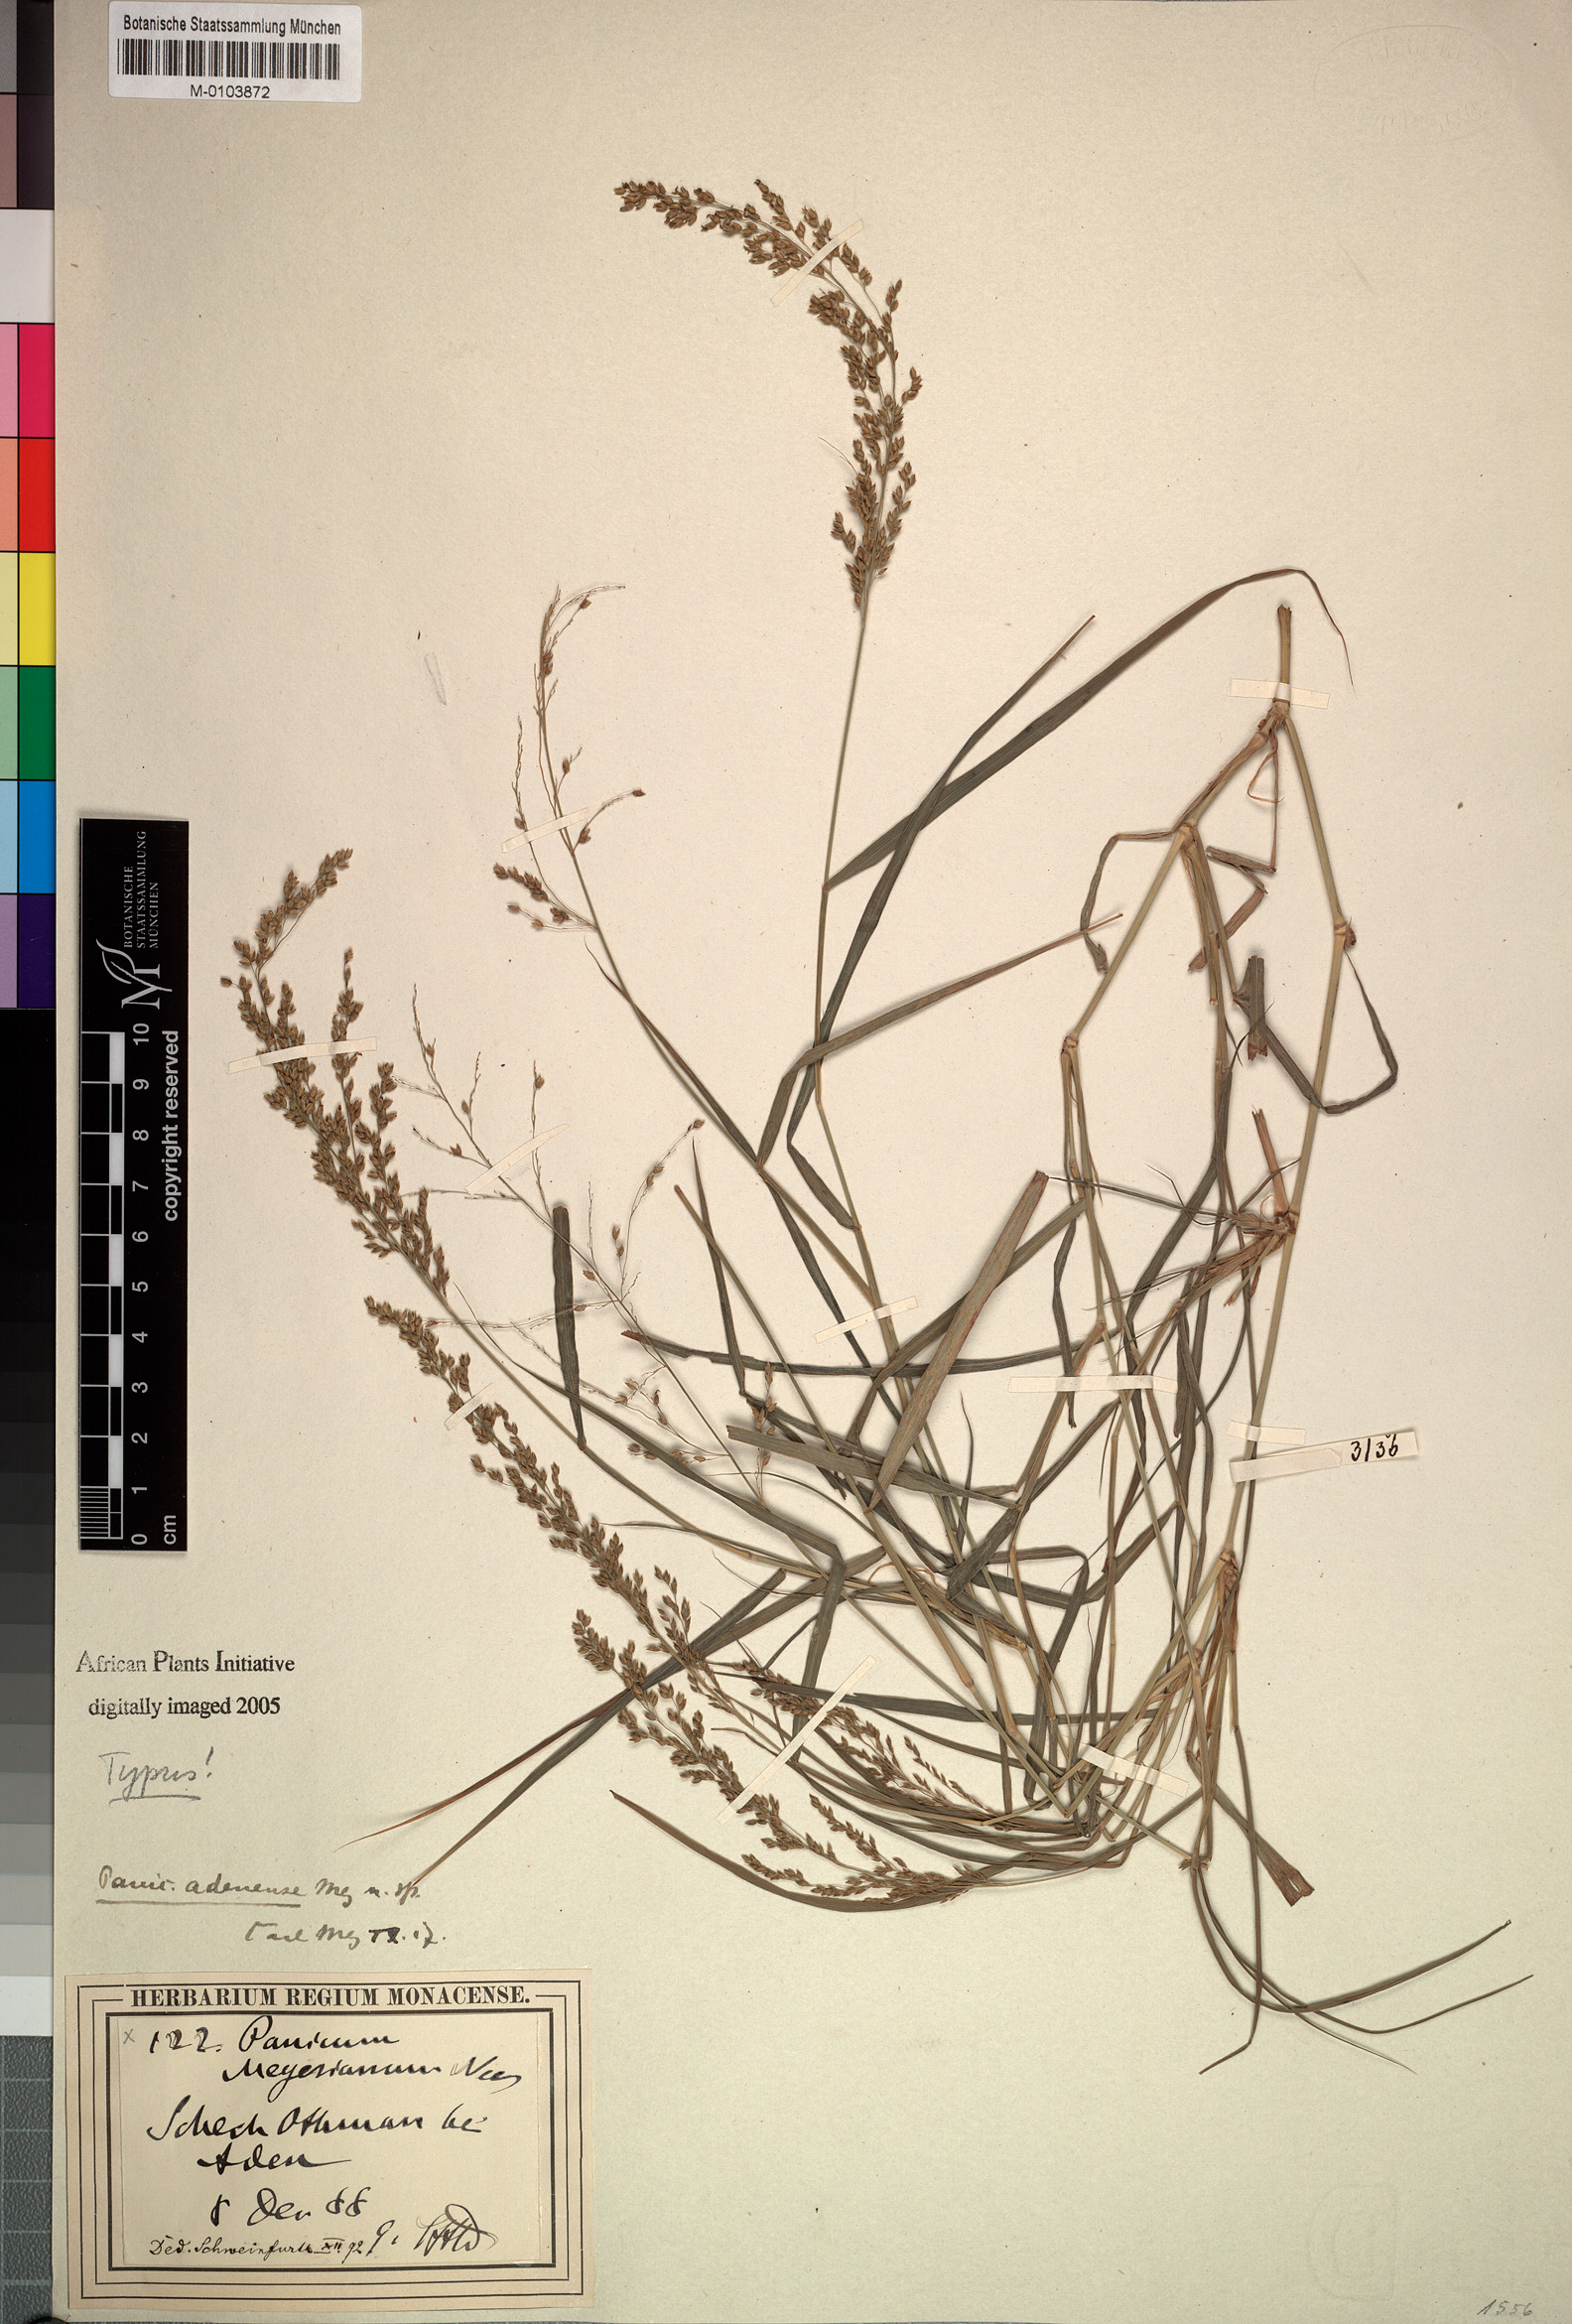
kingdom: Plantae
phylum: Tracheophyta
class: Liliopsida
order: Poales
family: Poaceae
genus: Eriochloa
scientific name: Eriochloa meyeriana
